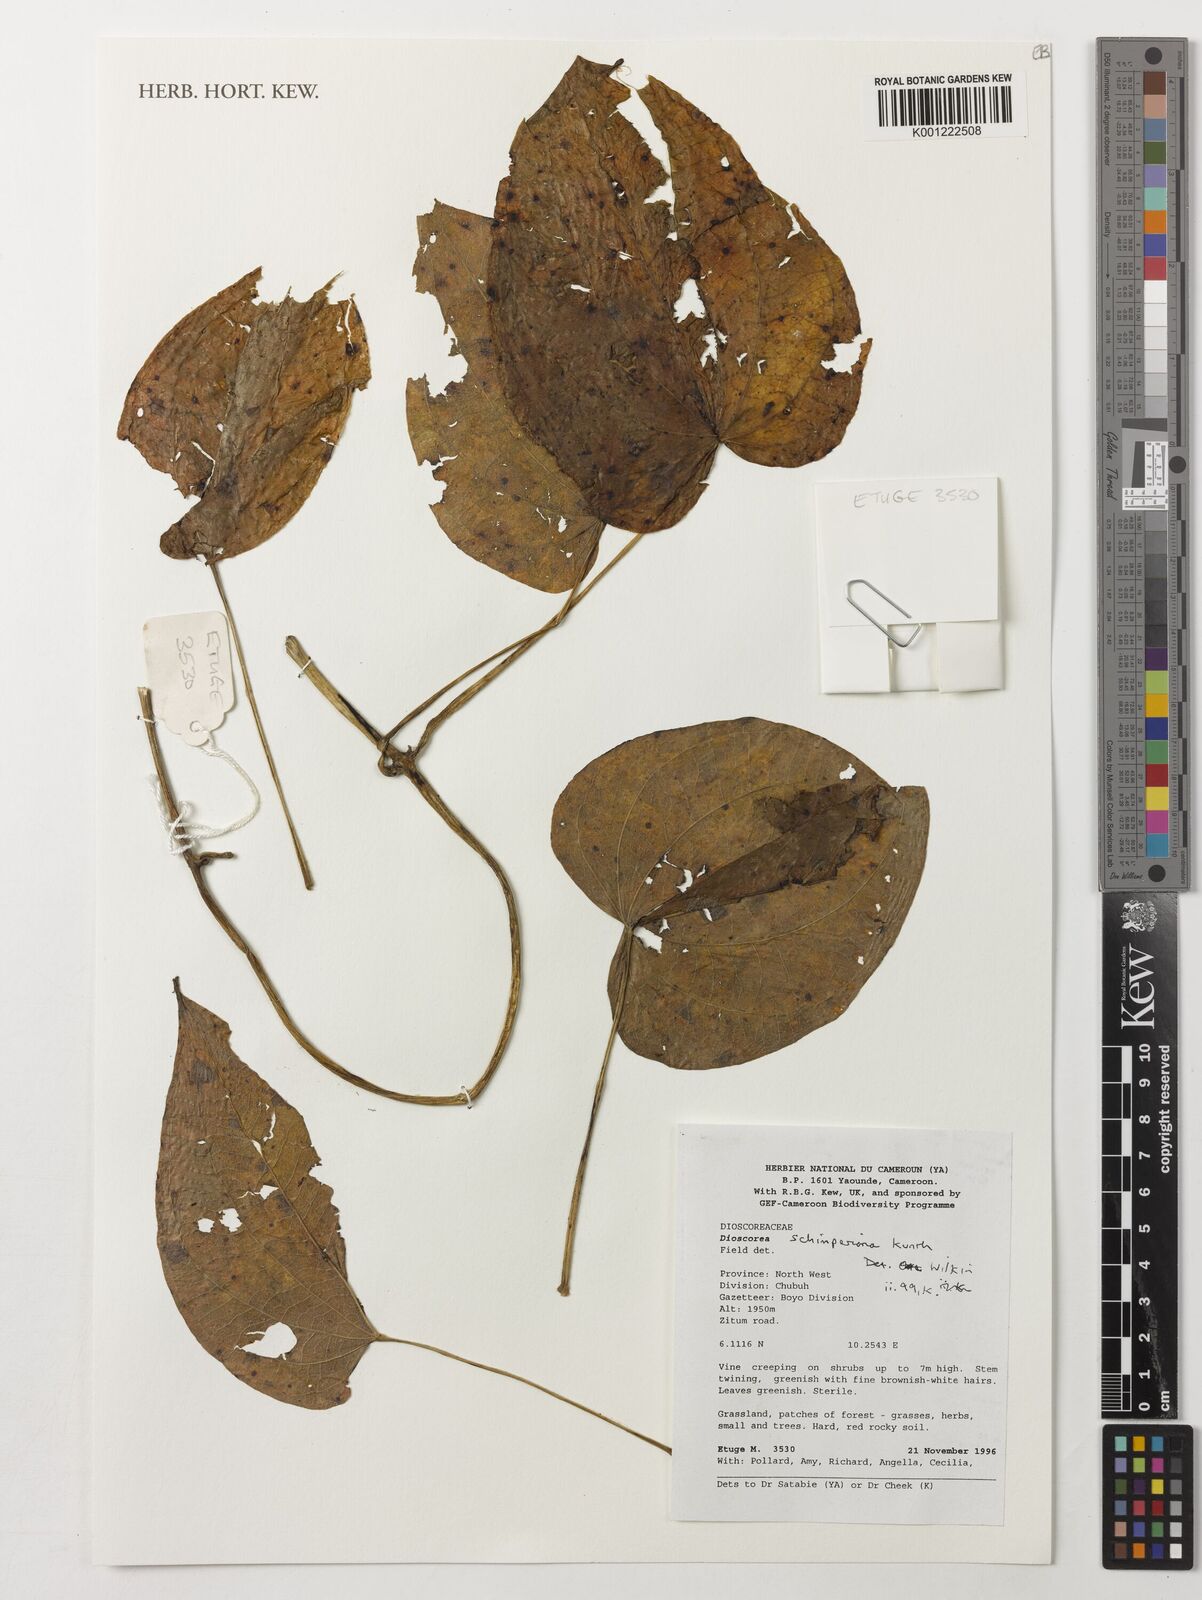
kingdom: Plantae
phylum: Tracheophyta
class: Liliopsida
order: Dioscoreales
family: Dioscoreaceae
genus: Dioscorea
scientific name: Dioscorea schimperiana
